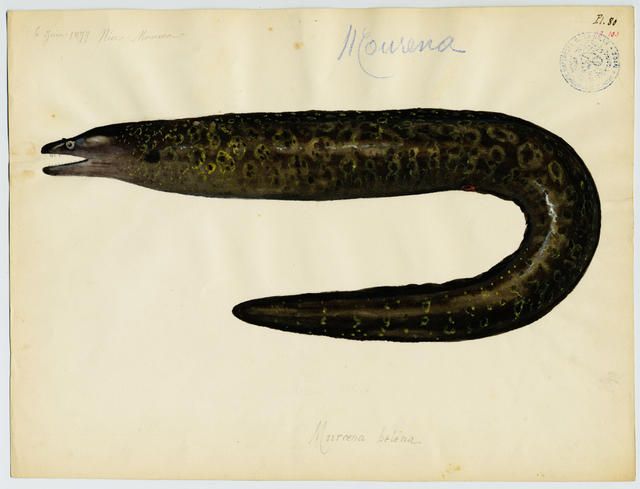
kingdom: Animalia
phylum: Chordata
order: Anguilliformes
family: Muraenidae
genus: Muraena
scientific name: Muraena helena
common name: Mediterranean moray
